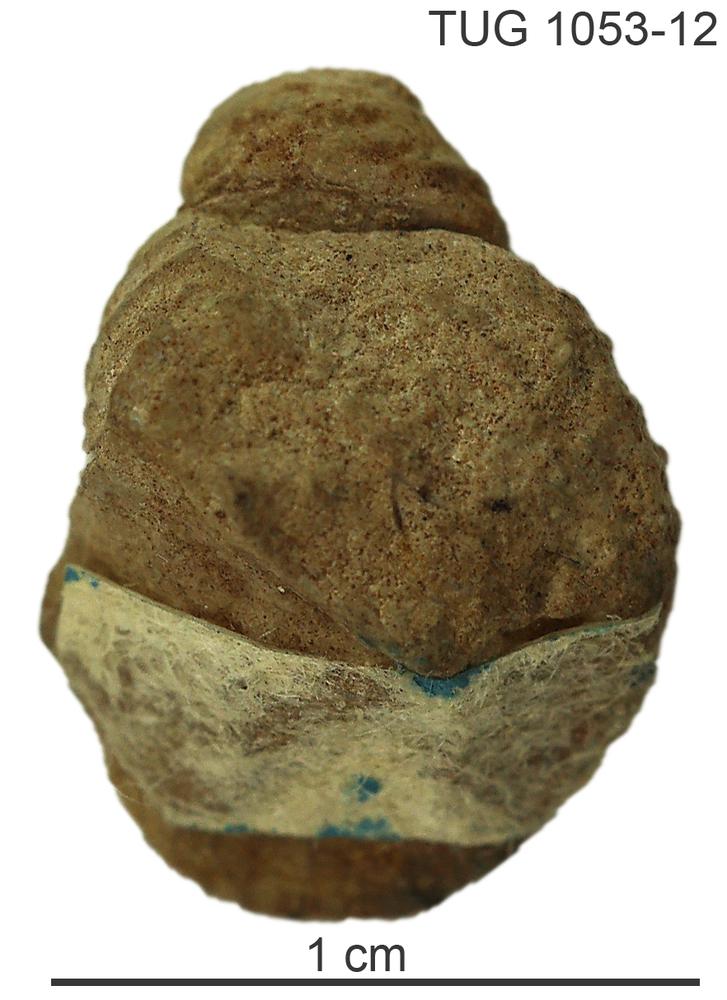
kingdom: Animalia
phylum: Mollusca
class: Gastropoda
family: Clisospiridae
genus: Clisospira
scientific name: Clisospira rugosa
